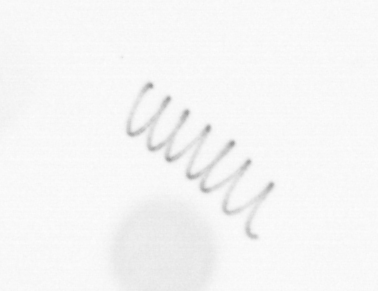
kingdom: Chromista
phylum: Ochrophyta
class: Bacillariophyceae
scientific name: Bacillariophyceae
